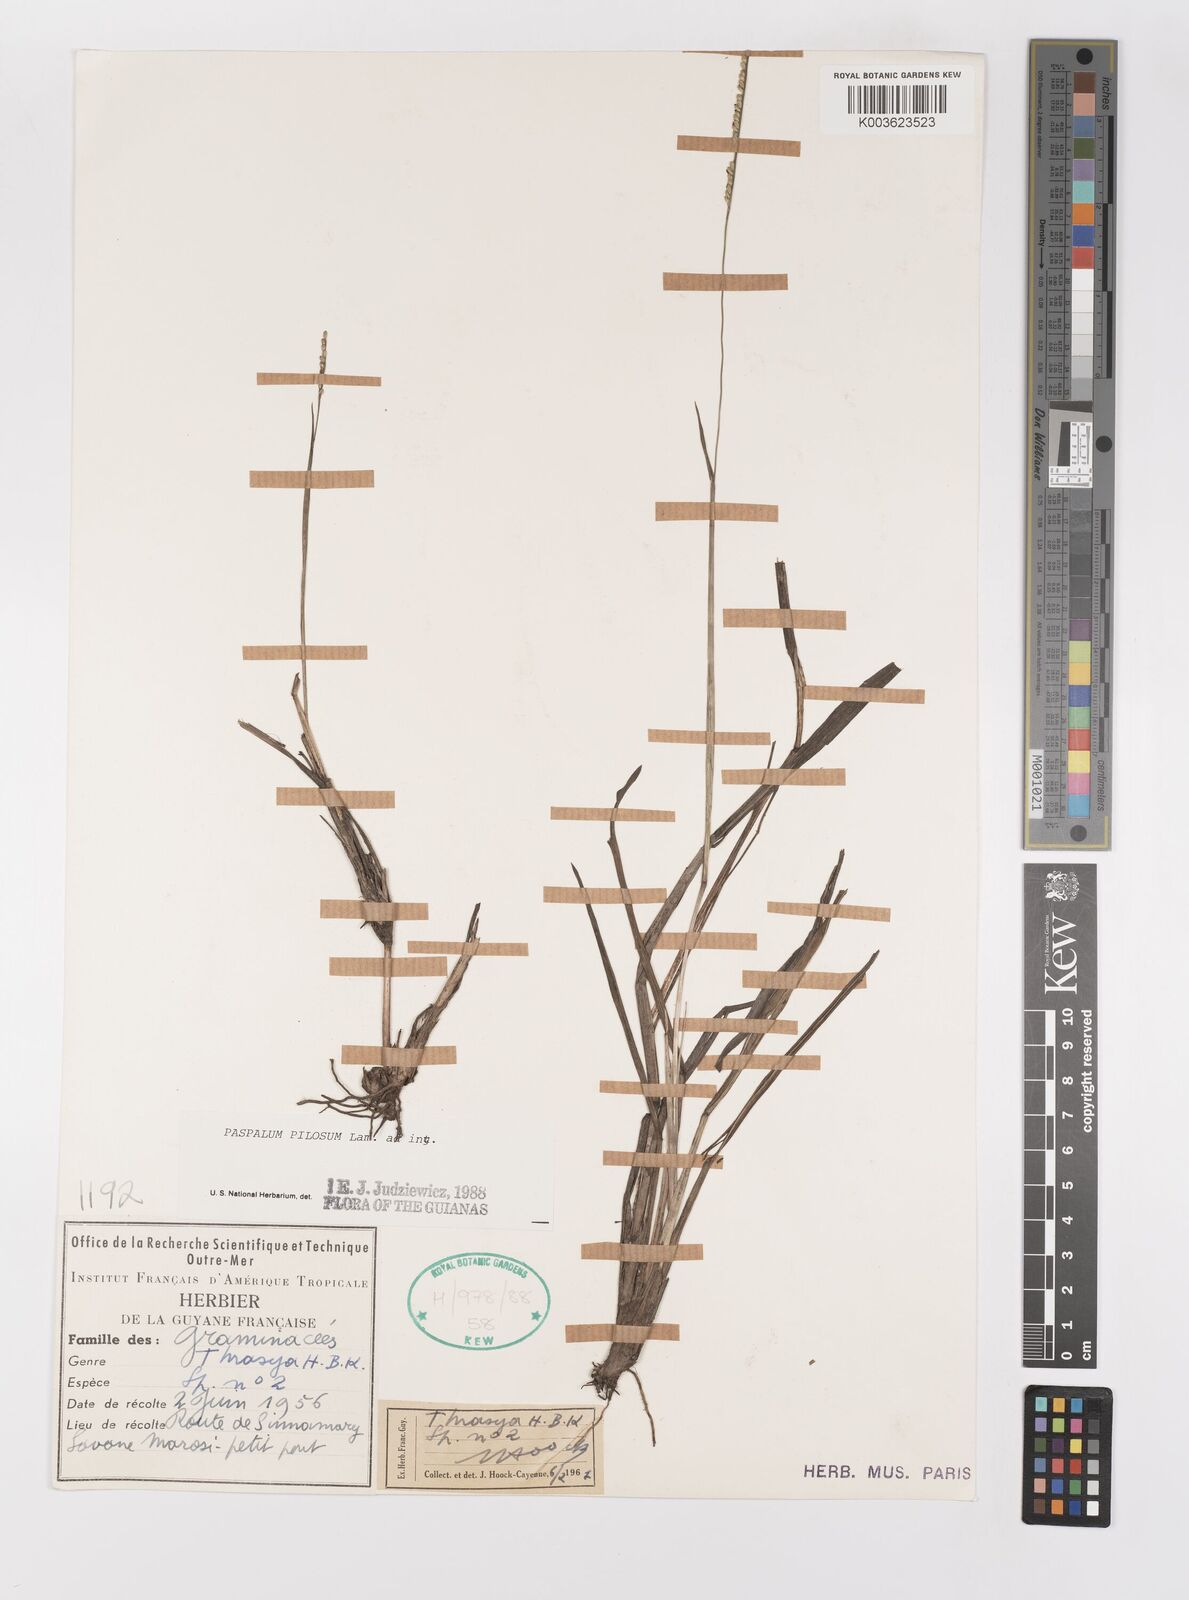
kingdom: Plantae
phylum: Tracheophyta
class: Liliopsida
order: Poales
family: Poaceae
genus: Paspalum
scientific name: Paspalum pilosum
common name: Crowngrass
